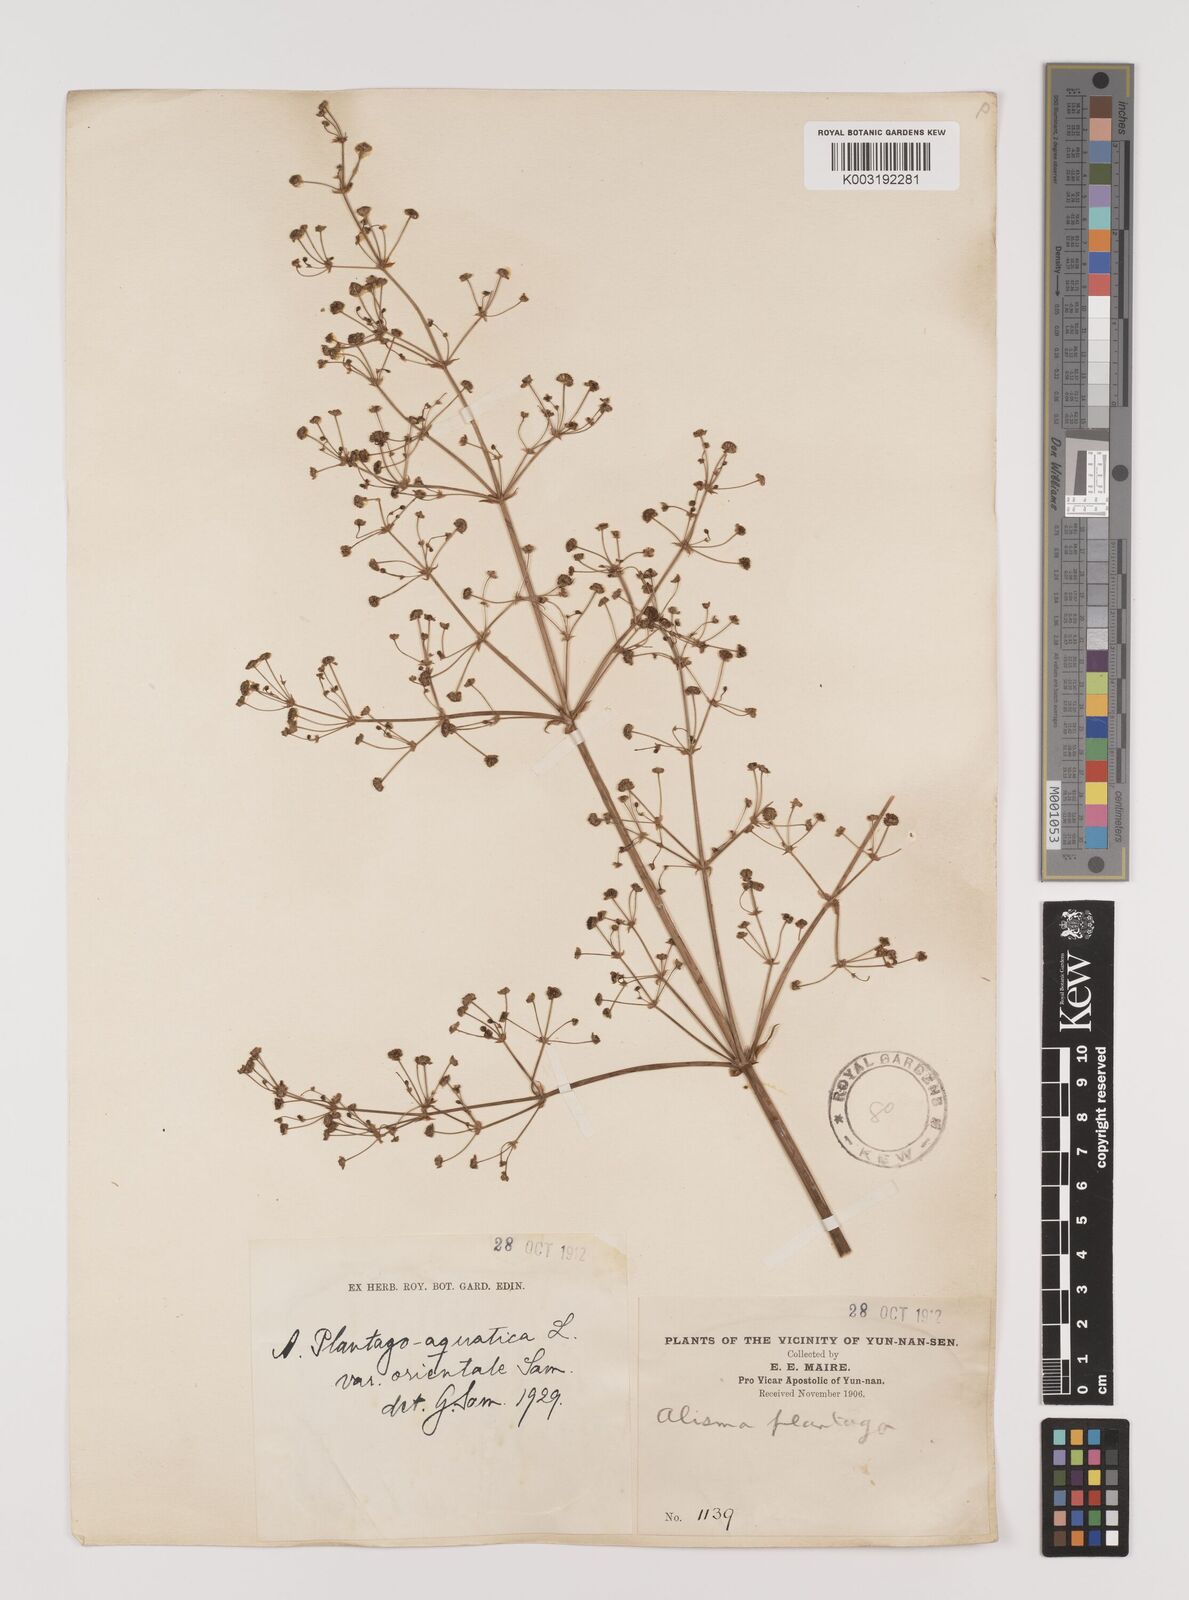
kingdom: Plantae
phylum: Tracheophyta
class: Liliopsida
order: Alismatales
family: Alismataceae
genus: Alisma
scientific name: Alisma plantago-aquatica
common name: Water-plantain
